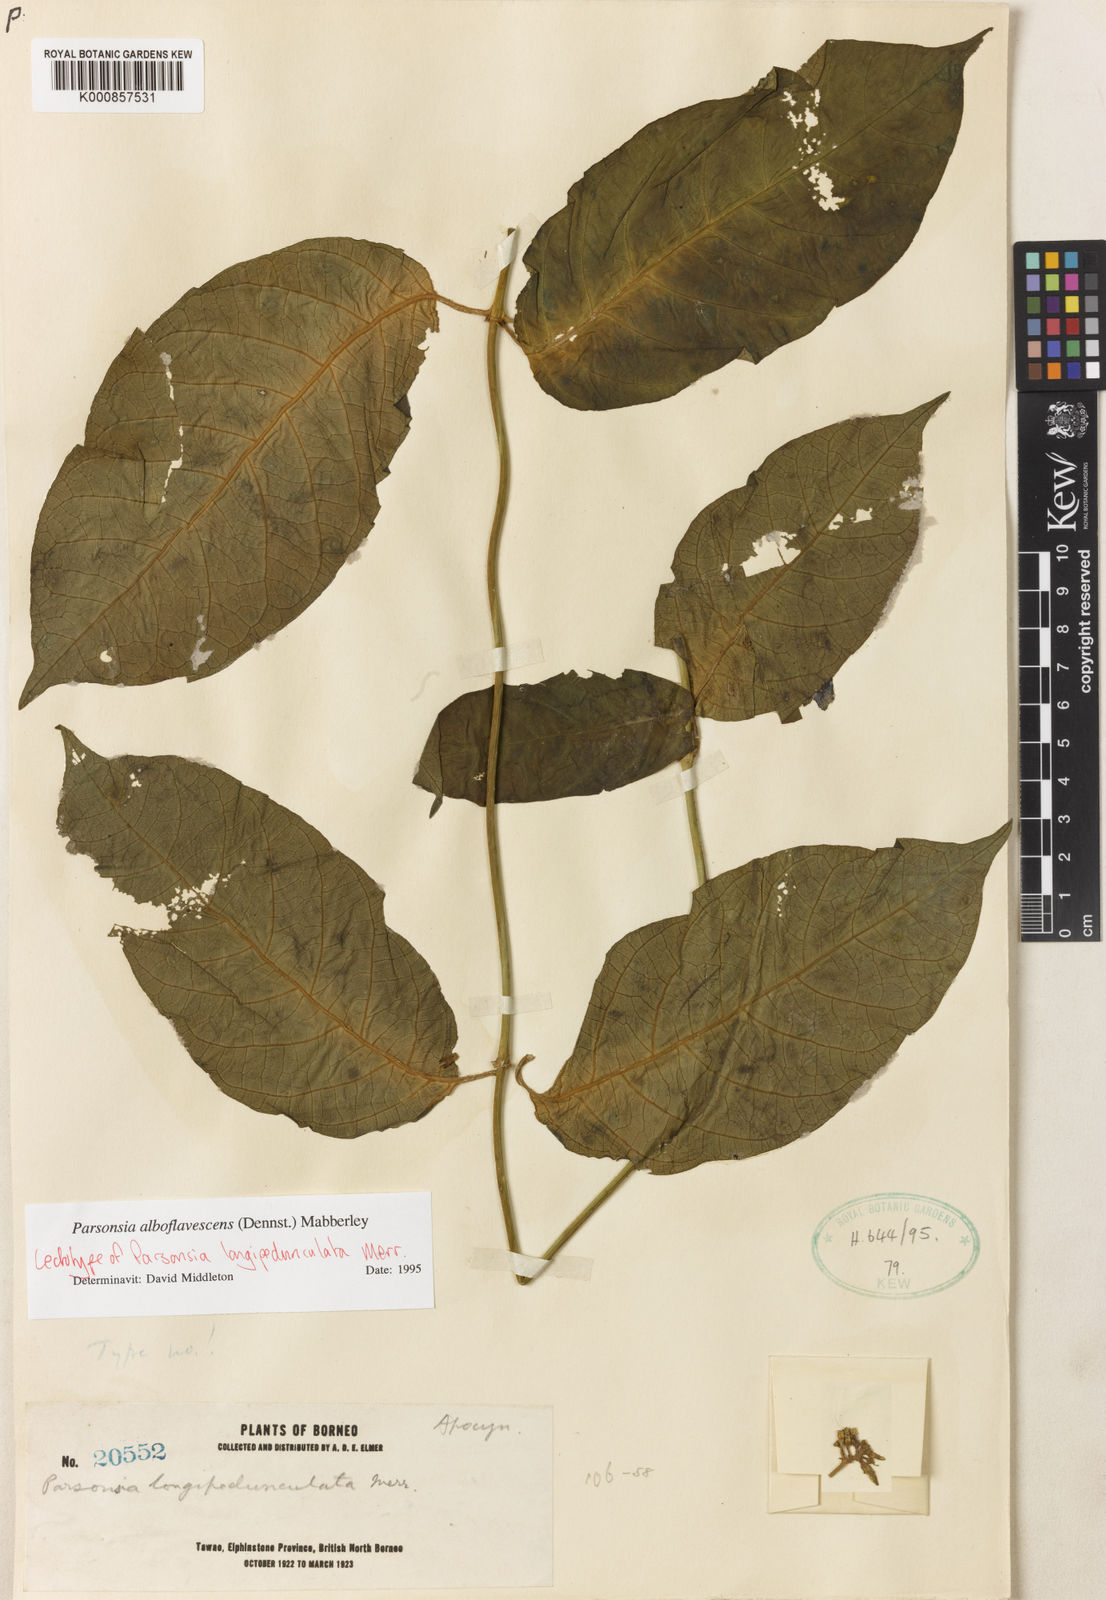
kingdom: Plantae
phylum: Tracheophyta
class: Magnoliopsida
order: Gentianales
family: Apocynaceae
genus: Parsonsia
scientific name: Parsonsia alboflavescens
